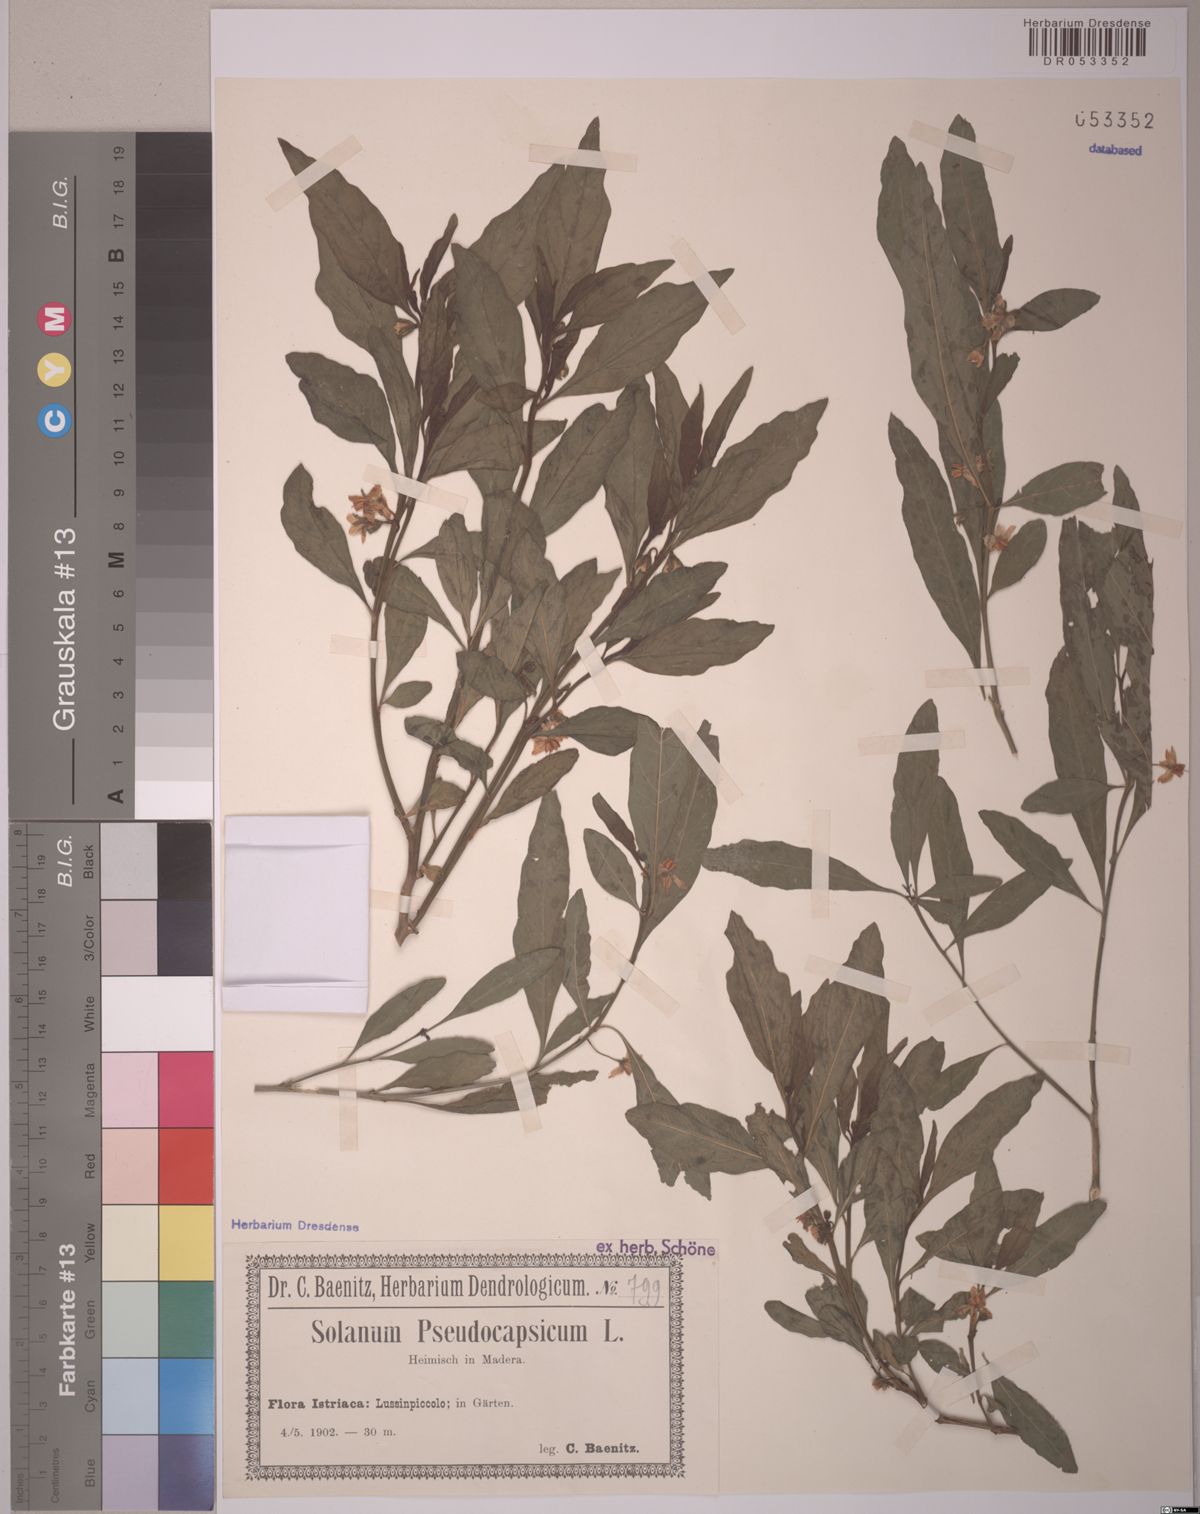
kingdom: Plantae
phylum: Tracheophyta
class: Magnoliopsida
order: Solanales
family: Solanaceae
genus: Solanum
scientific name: Solanum pseudocapsicum
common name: Jerusalem cherry
